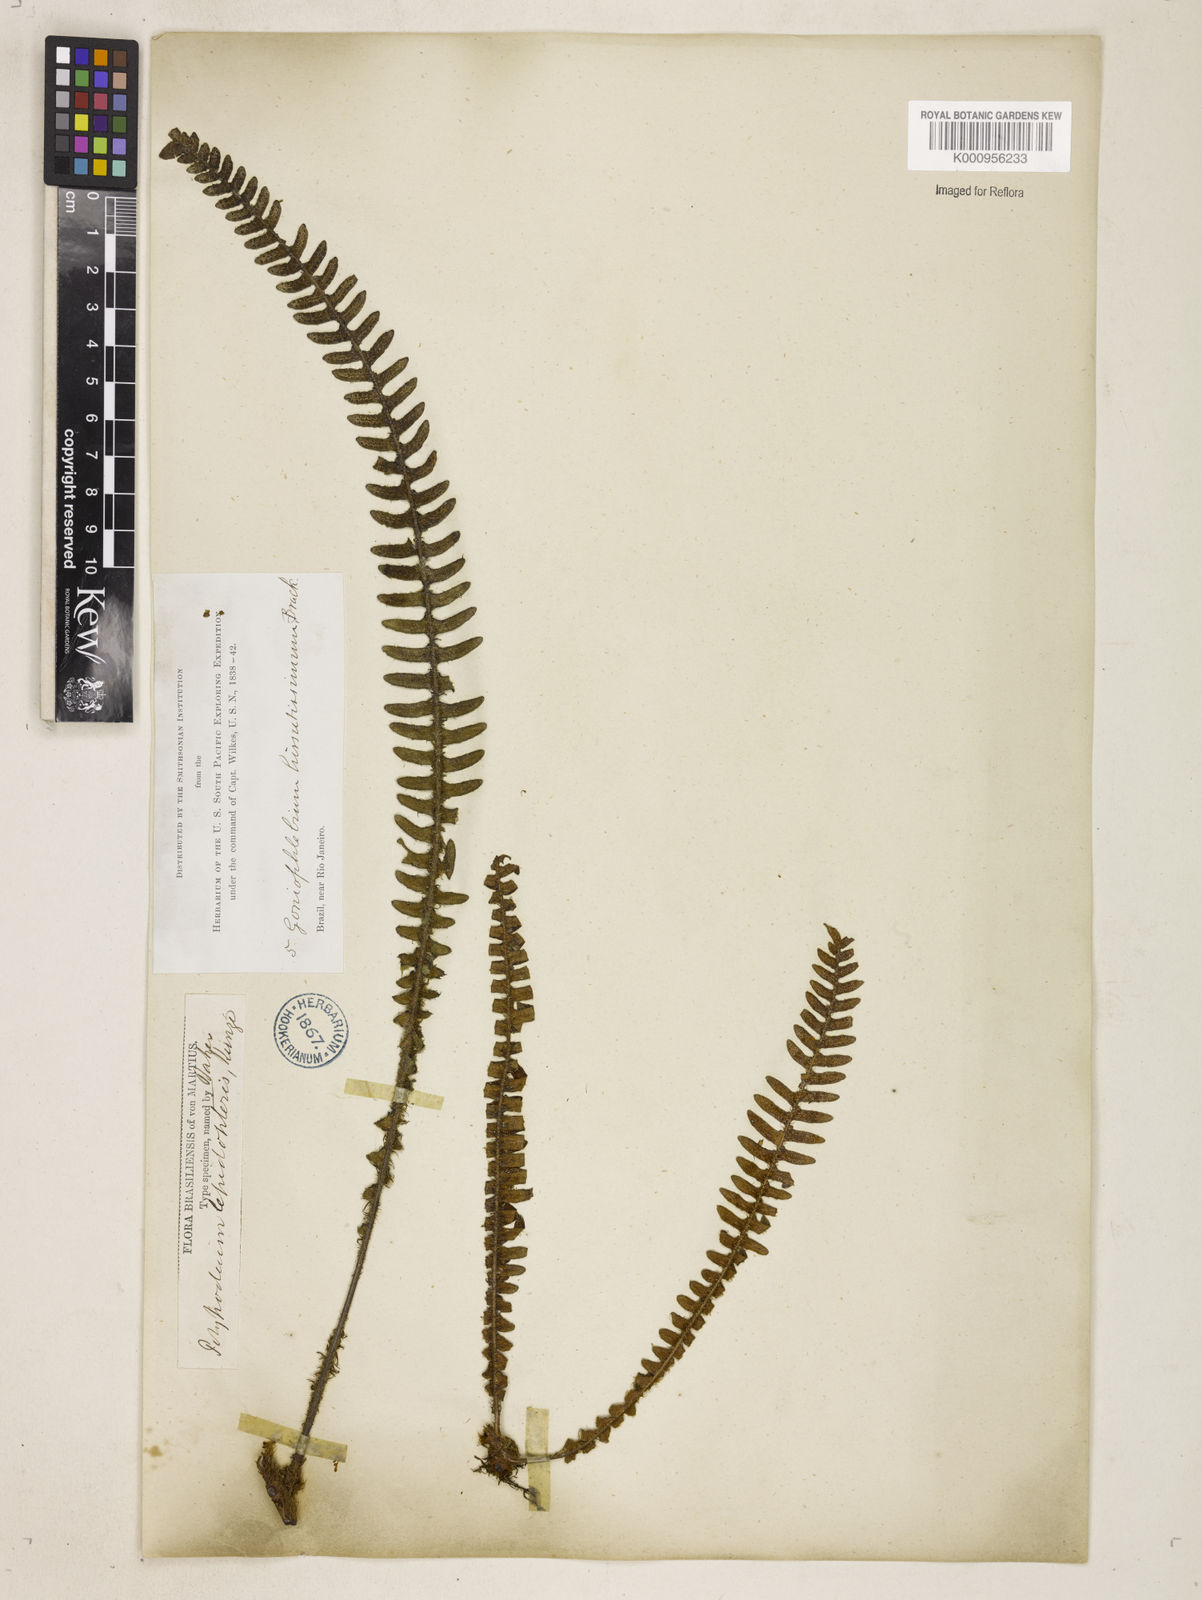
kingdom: Plantae
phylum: Tracheophyta
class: Polypodiopsida
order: Polypodiales
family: Polypodiaceae
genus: Pleopeltis
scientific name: Pleopeltis hirsutissima
